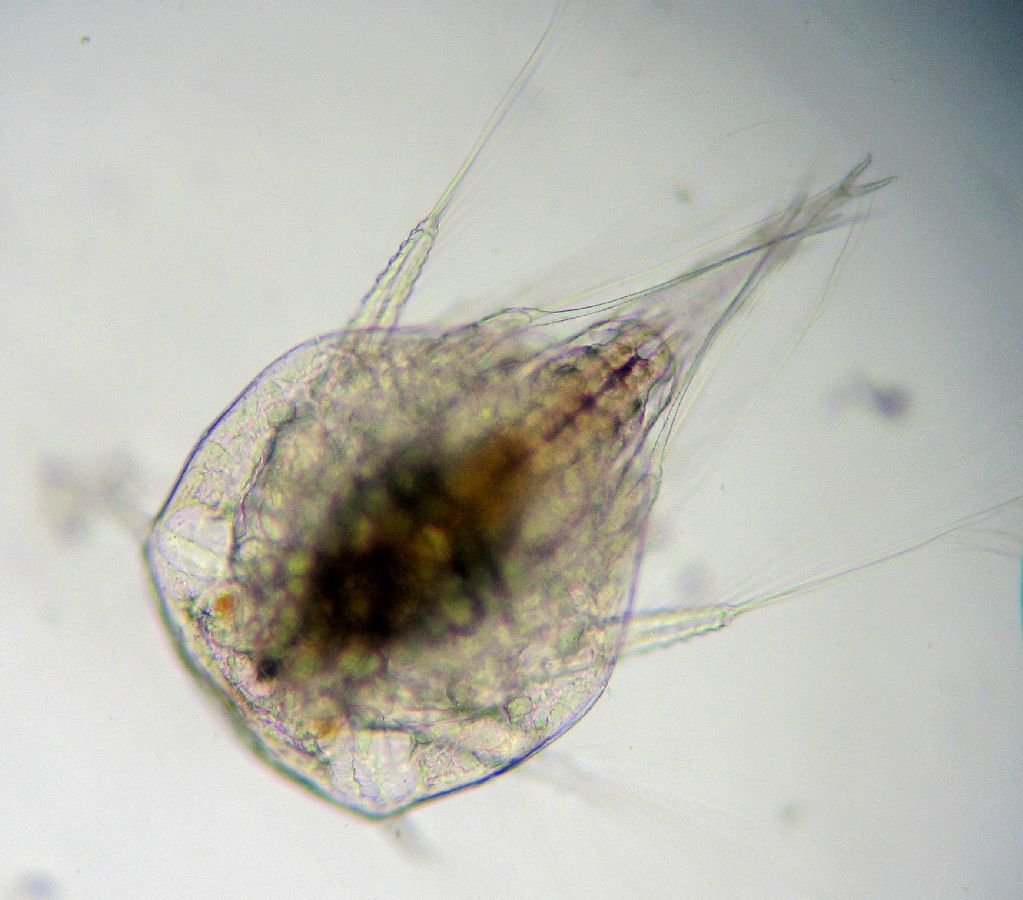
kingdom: Animalia
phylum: Arthropoda
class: Maxillopoda
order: Sessilia
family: Archaeobalanidae
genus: Semibalanus
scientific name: Semibalanus balanoides
